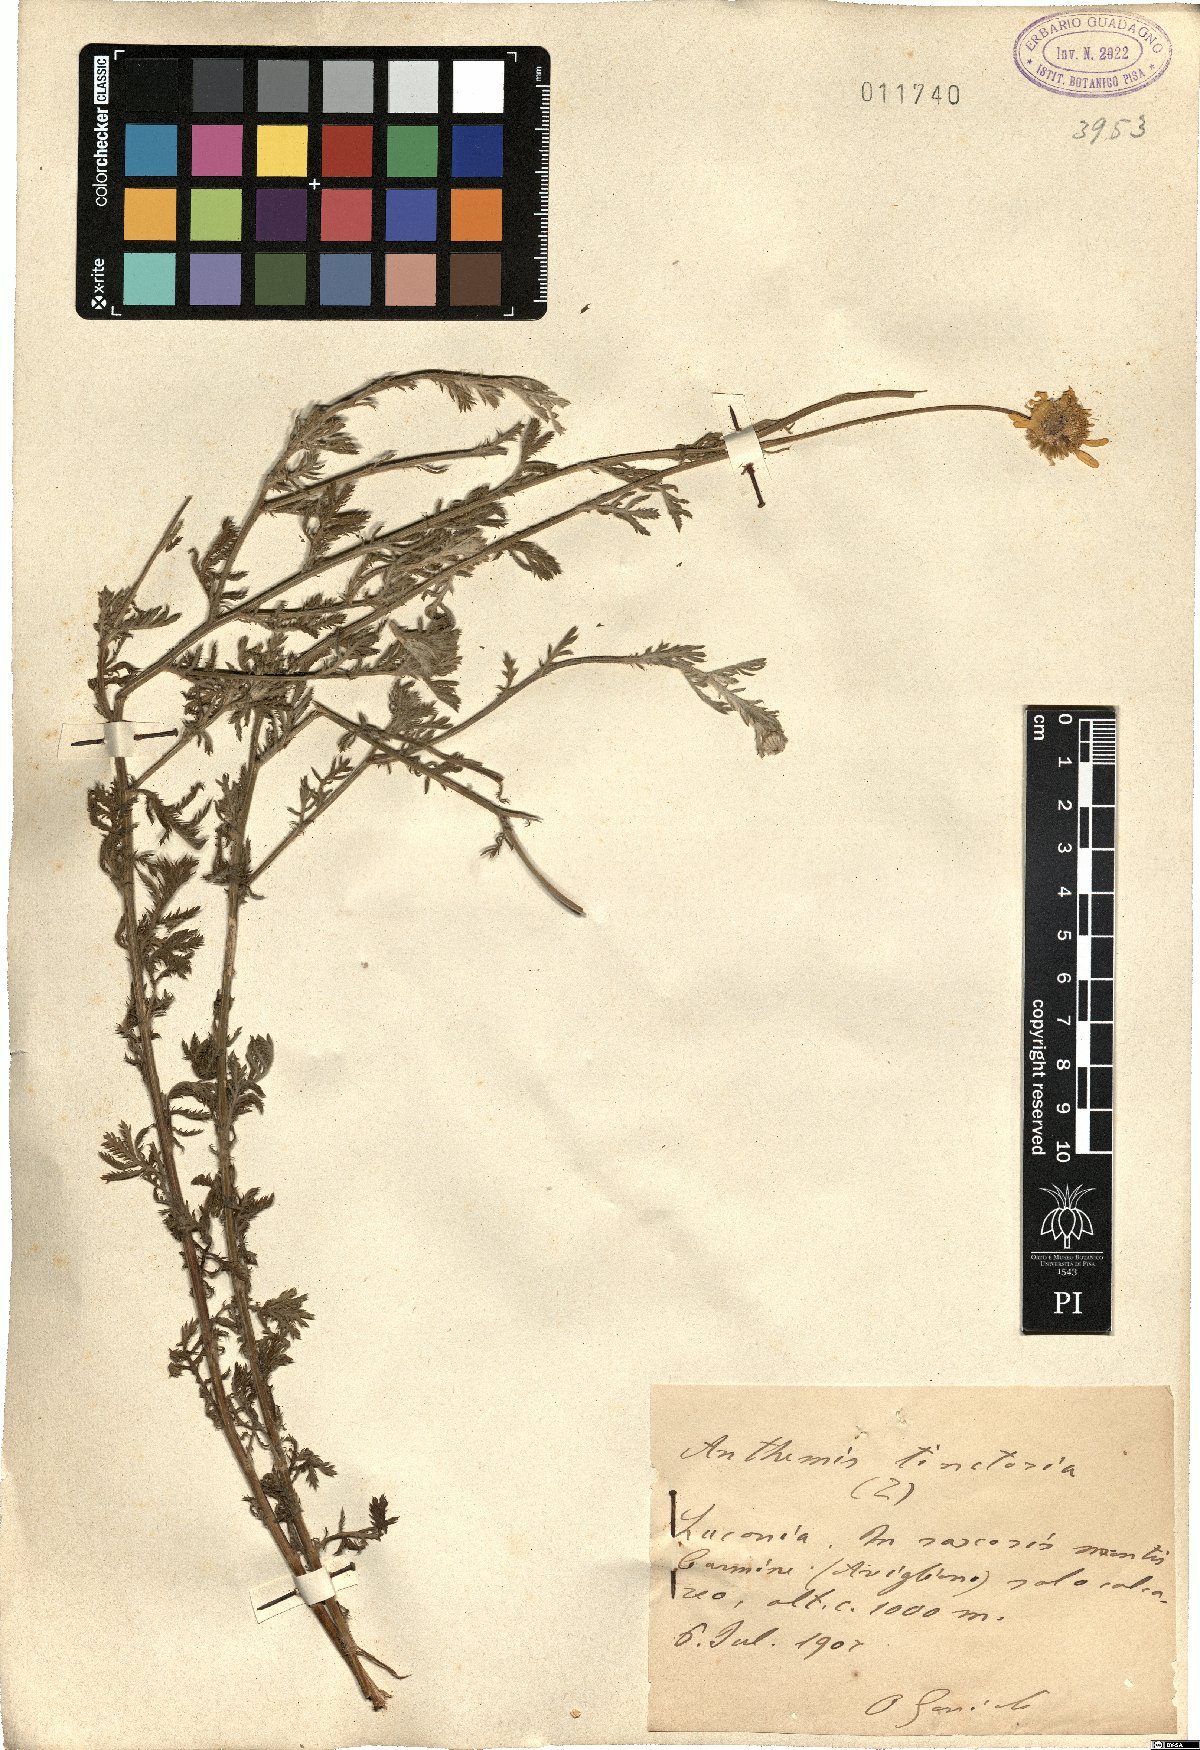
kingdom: Plantae
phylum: Tracheophyta
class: Magnoliopsida
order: Asterales
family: Asteraceae
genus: Cota
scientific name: Cota tinctoria
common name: Golden chamomile
